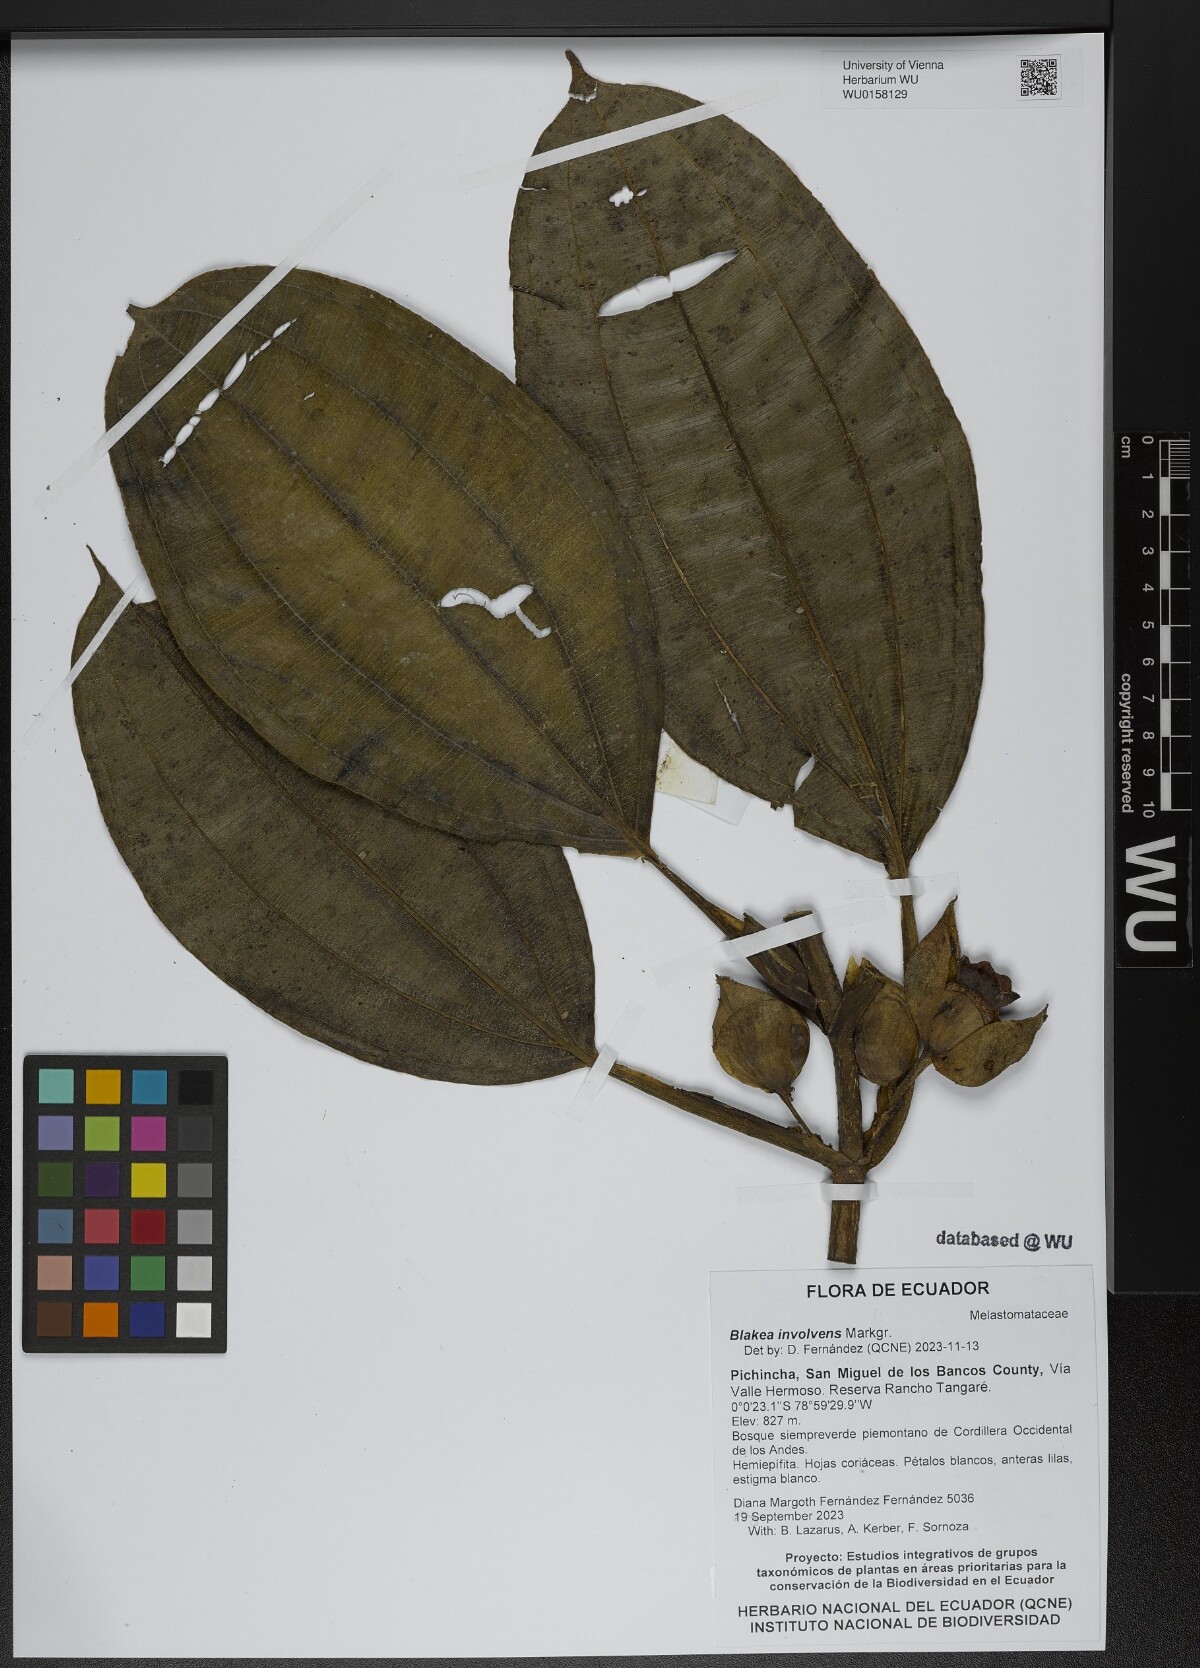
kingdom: Plantae
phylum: Tracheophyta
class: Magnoliopsida
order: Myrtales
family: Melastomataceae
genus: Blakea
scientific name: Blakea involvens
